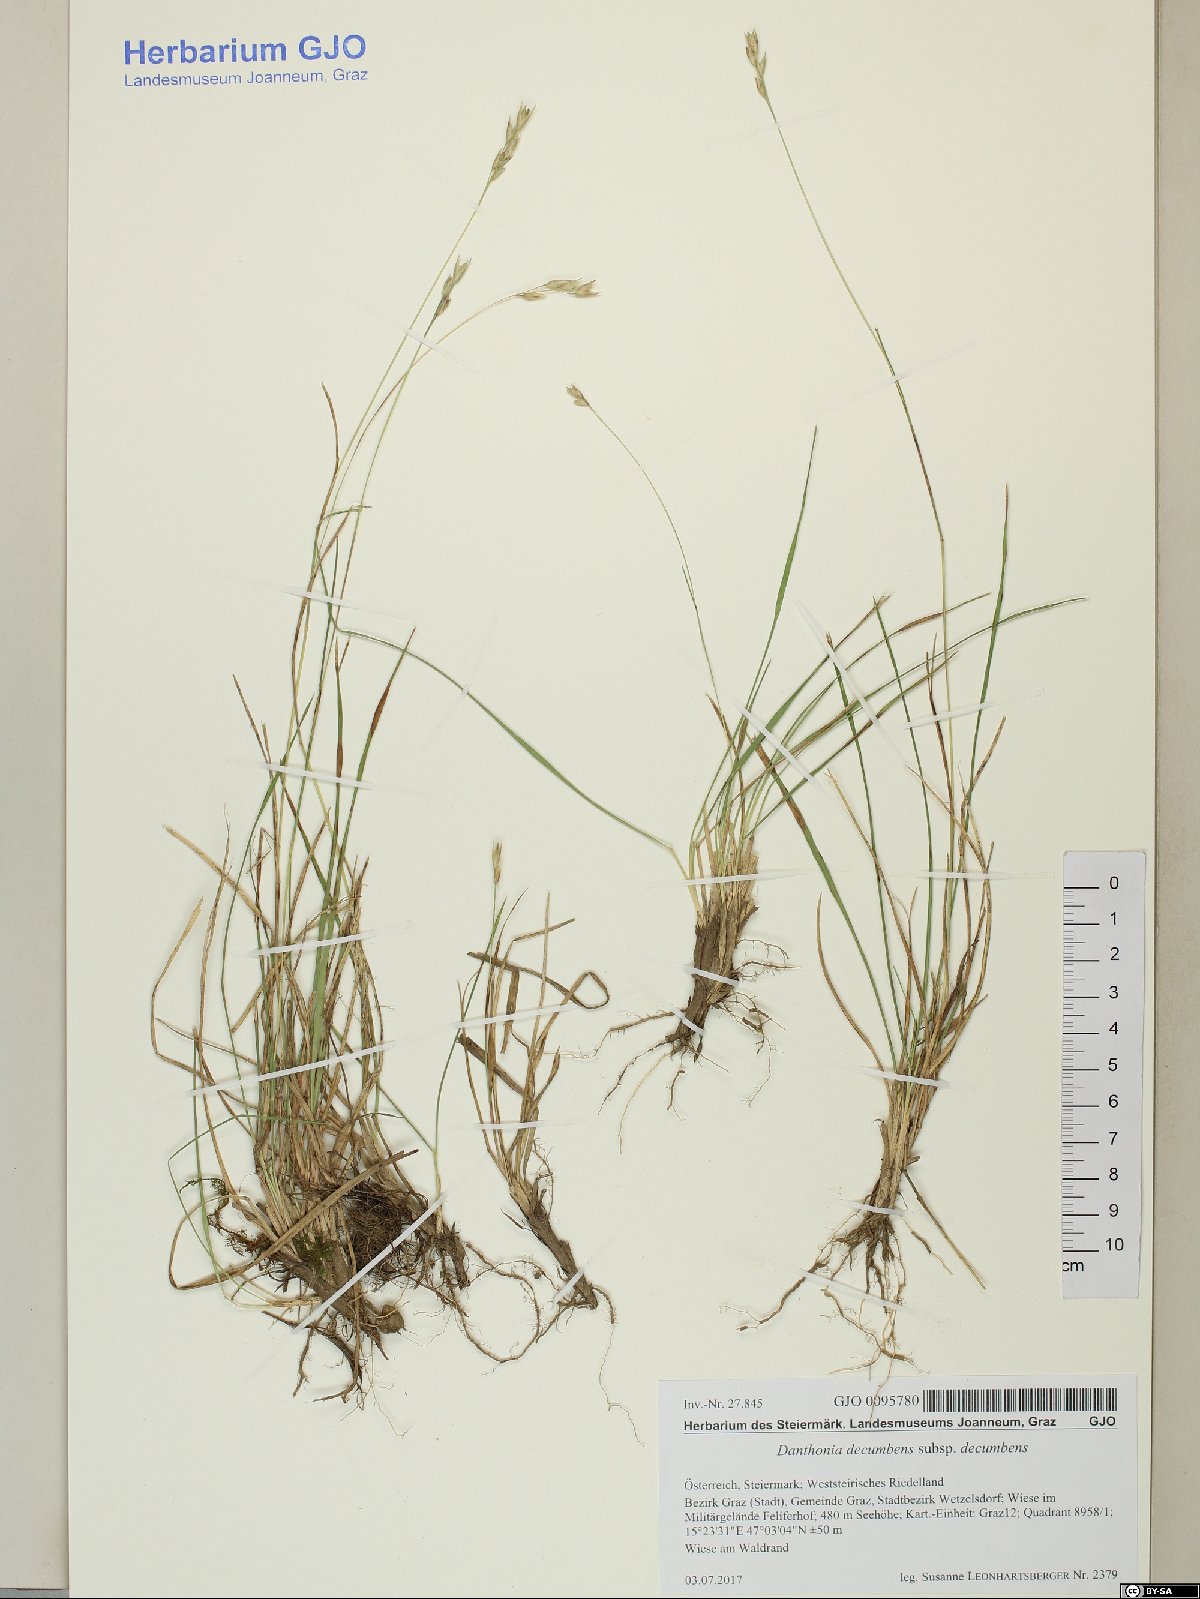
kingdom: Plantae
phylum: Tracheophyta
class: Liliopsida
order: Poales
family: Poaceae
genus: Danthonia
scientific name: Danthonia decumbens
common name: Common heathgrass
